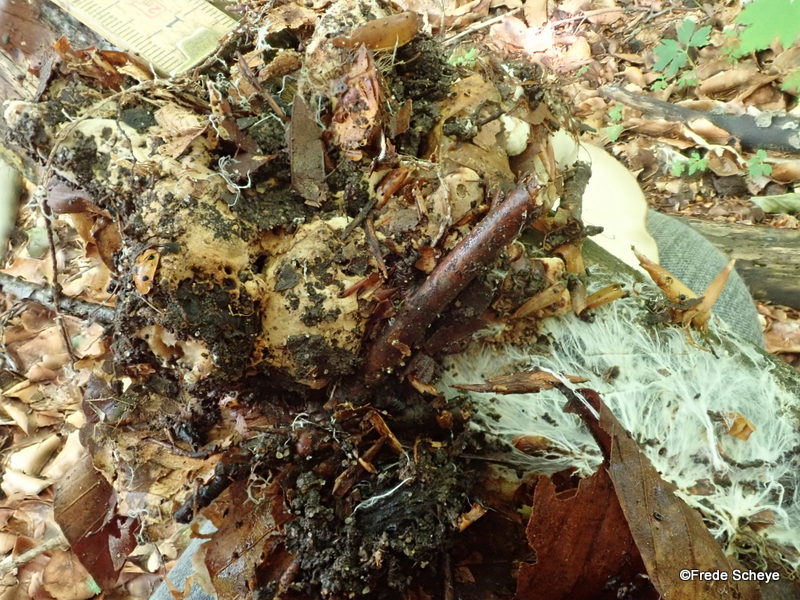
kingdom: Fungi
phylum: Basidiomycota
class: Agaricomycetes
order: Polyporales
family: Polyporaceae
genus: Polyporus
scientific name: Polyporus tuberaster
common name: knoldet stilkporesvamp
